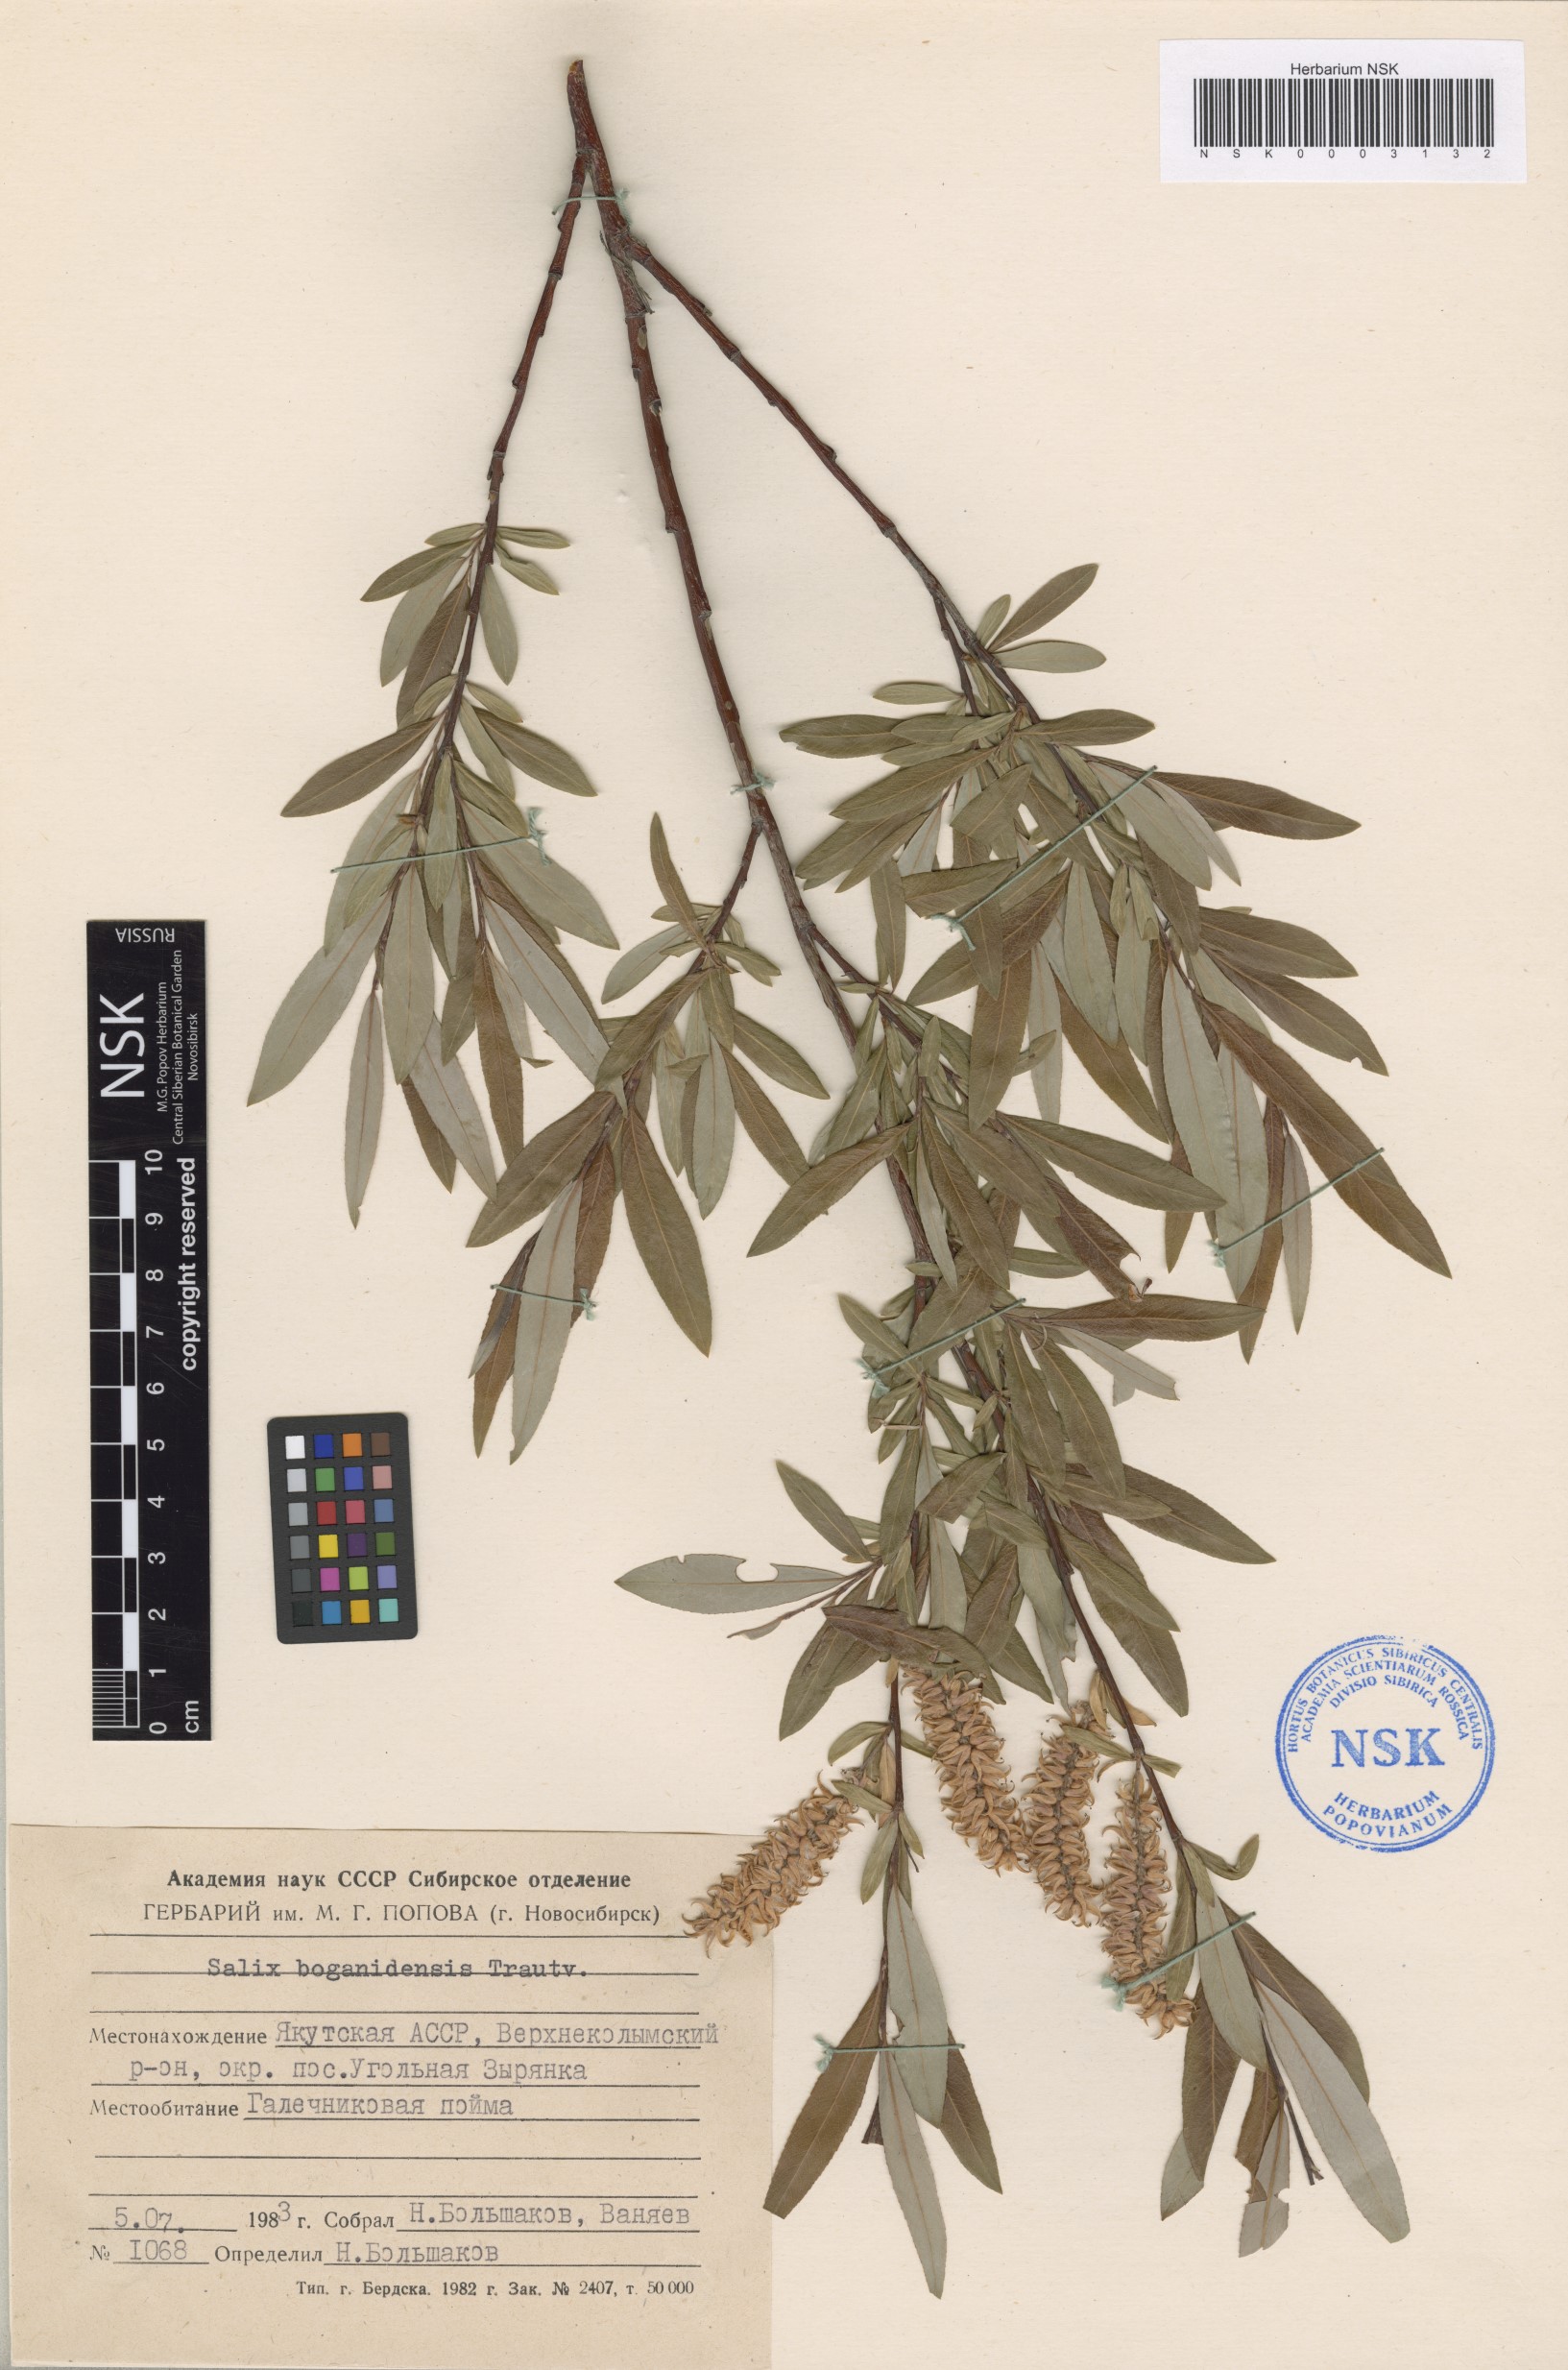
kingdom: Plantae
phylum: Tracheophyta
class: Magnoliopsida
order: Malpighiales
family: Salicaceae
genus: Salix
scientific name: Salix boganidensis
